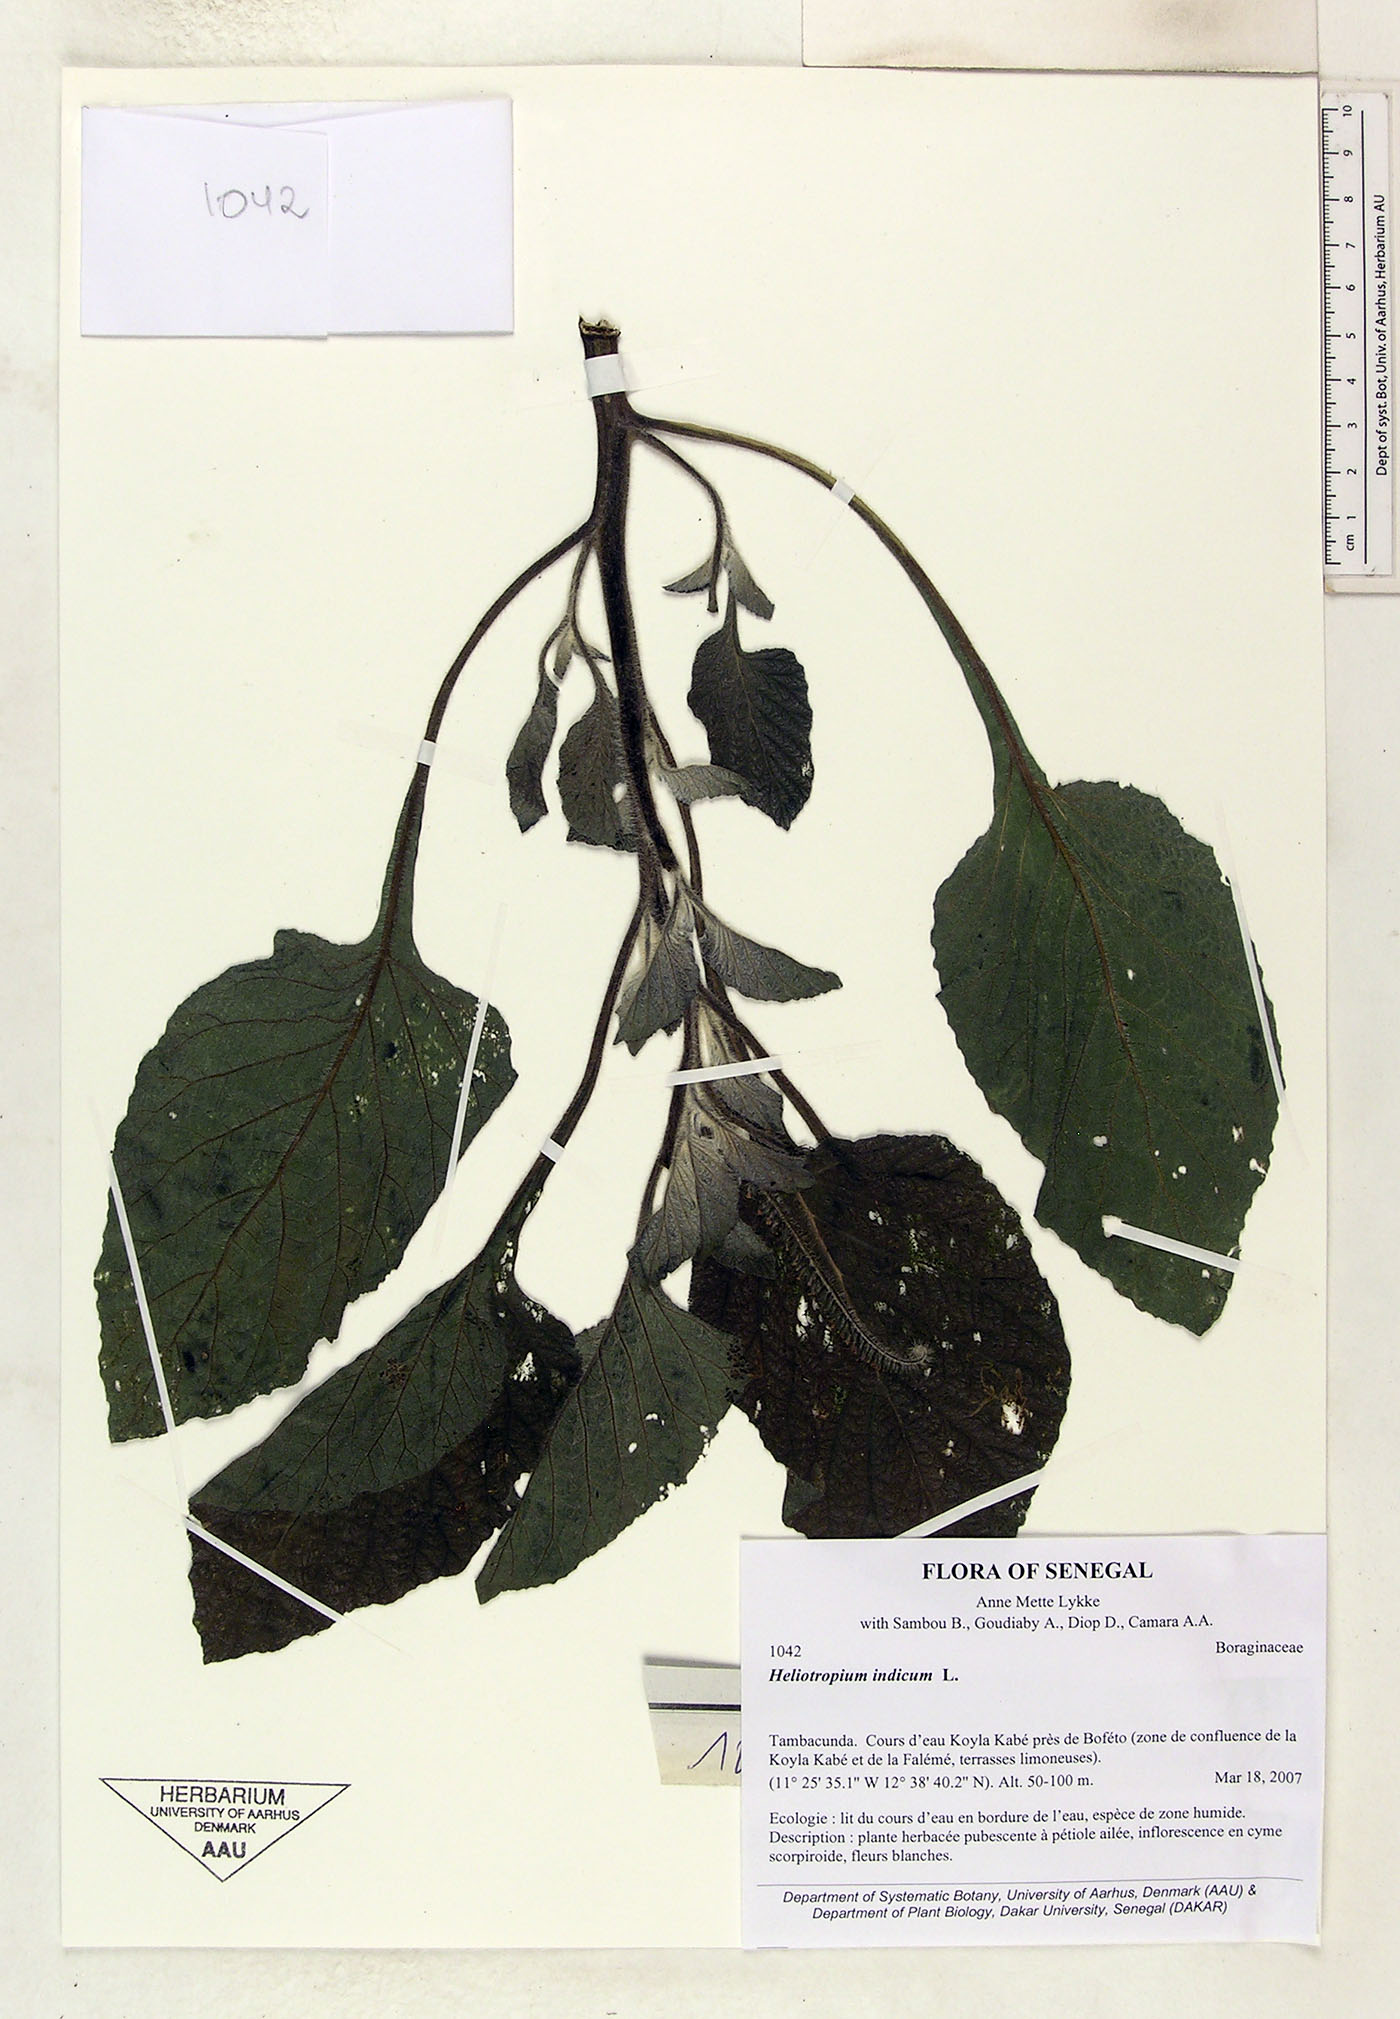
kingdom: Plantae
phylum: Tracheophyta
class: Magnoliopsida
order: Boraginales
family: Heliotropiaceae
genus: Heliotropium
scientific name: Heliotropium indicum
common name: Indian heliotrope
